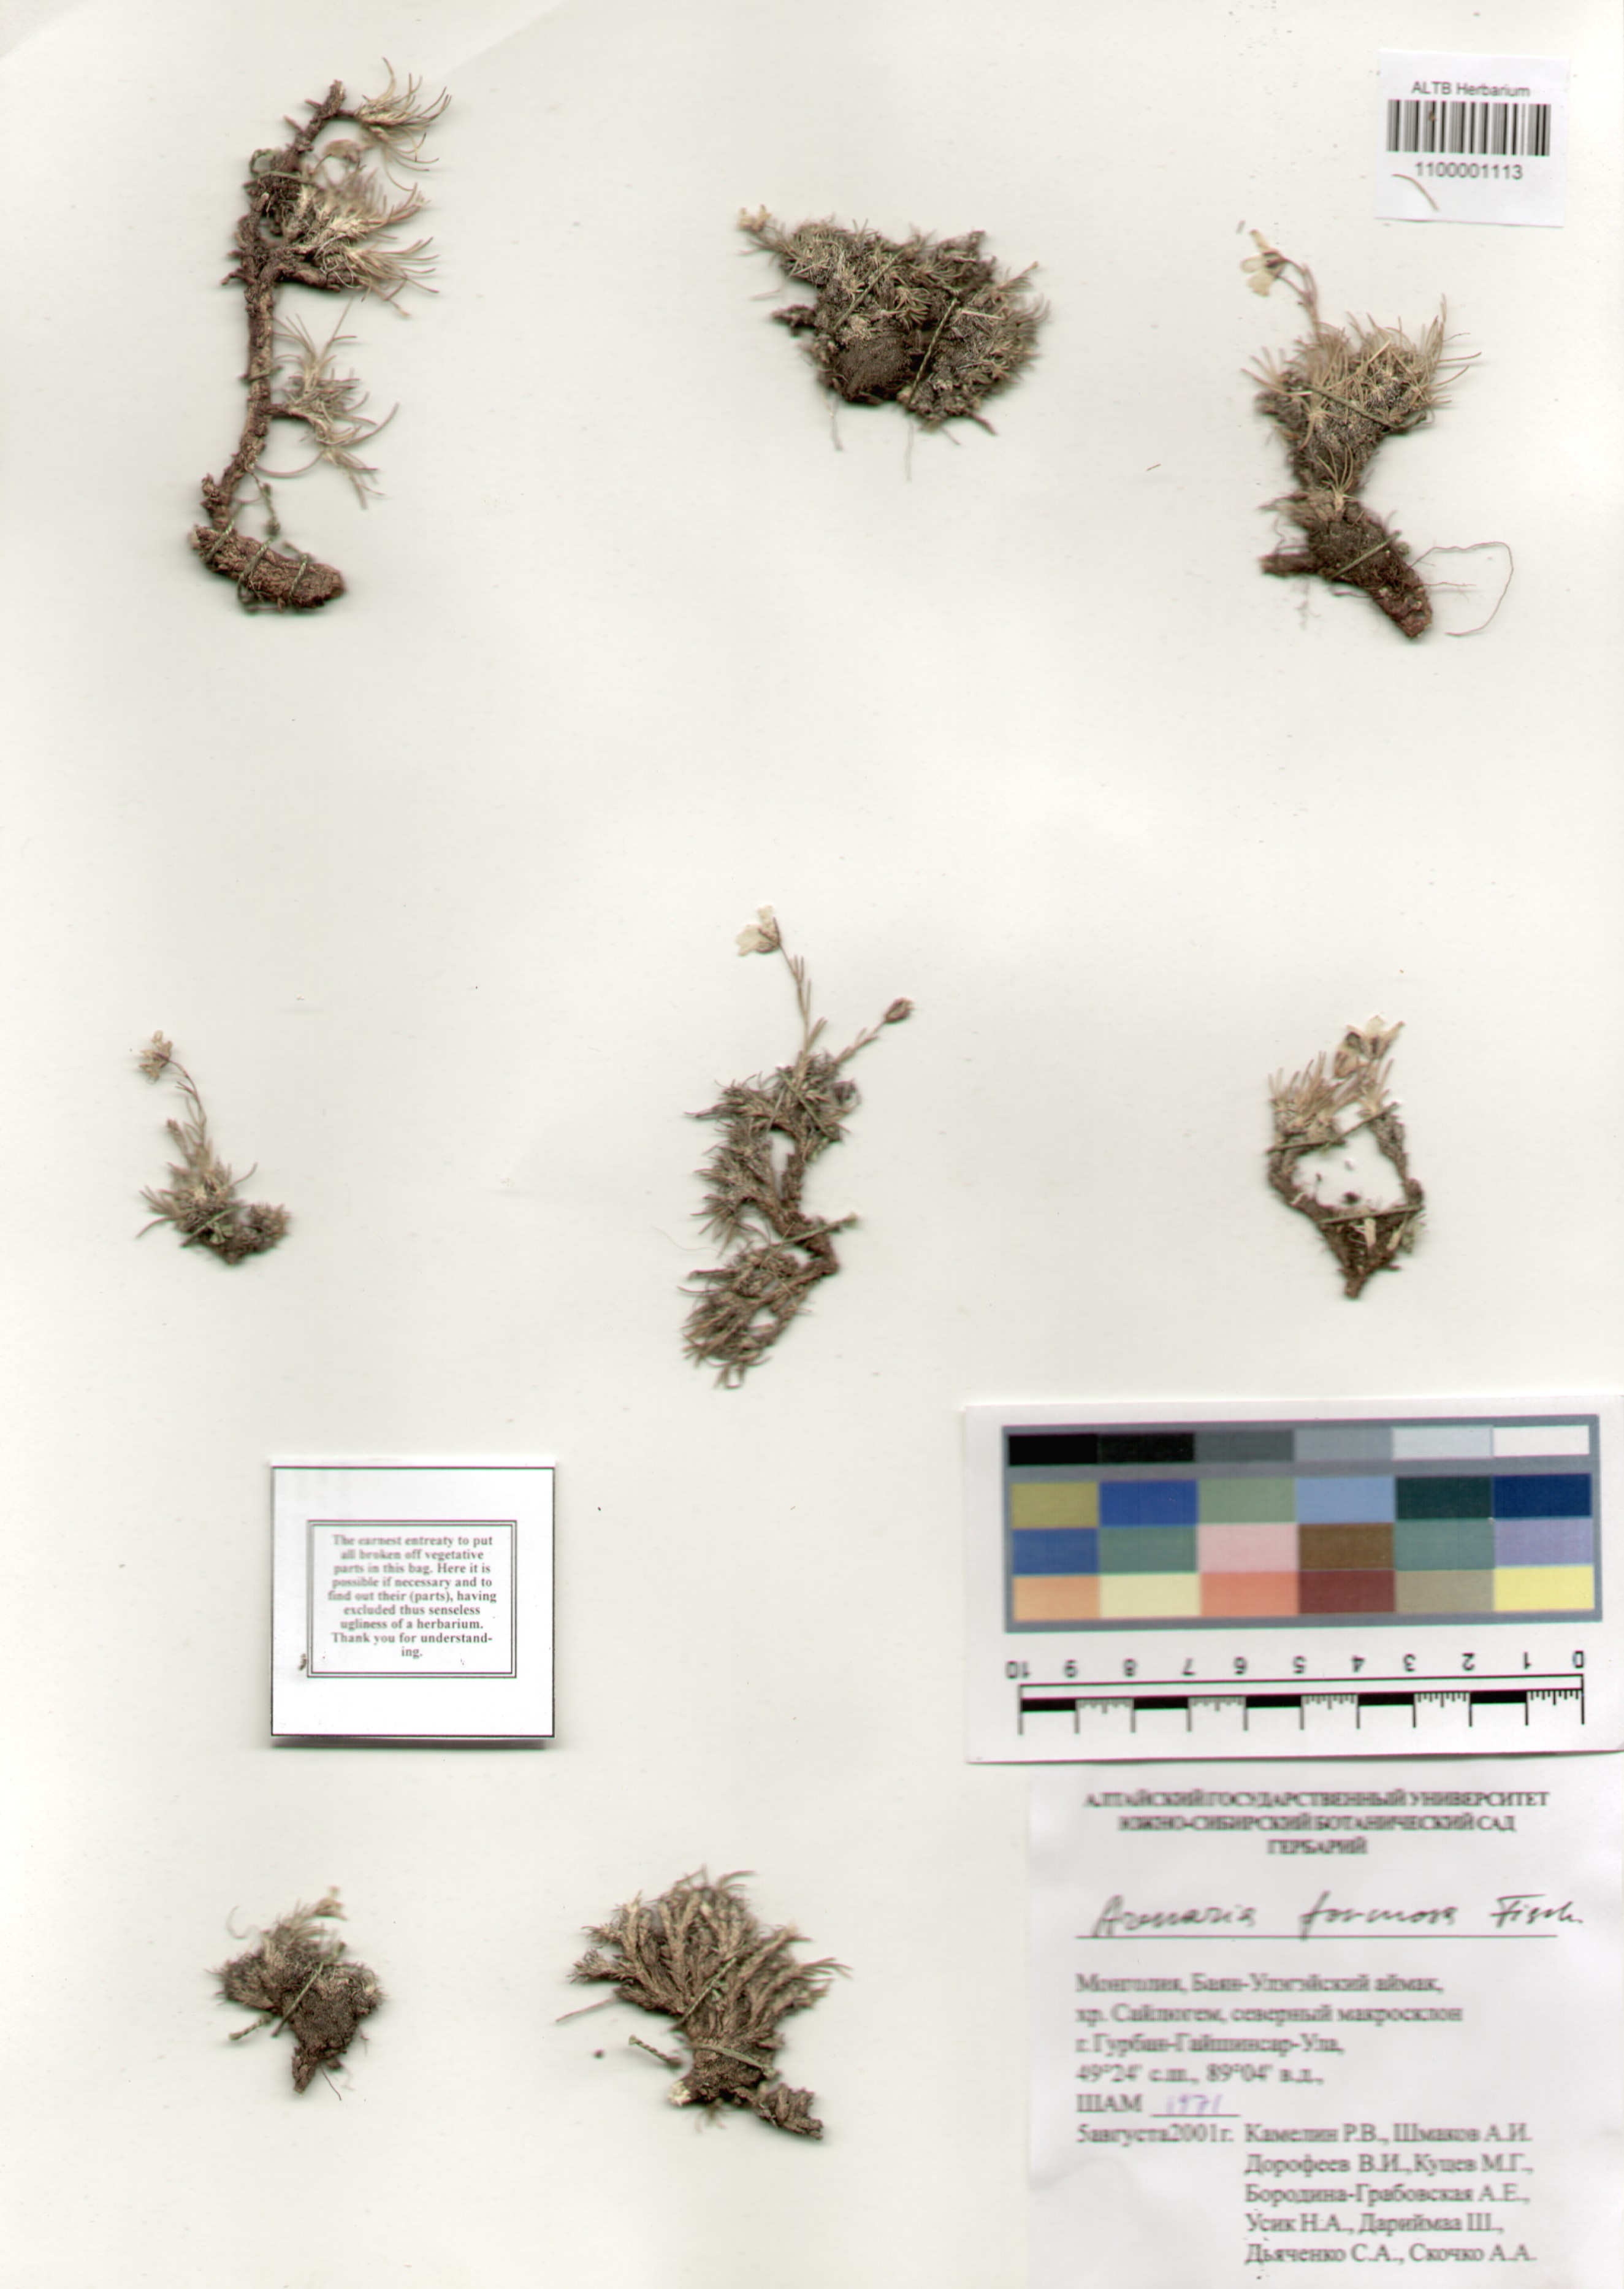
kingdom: Plantae
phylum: Tracheophyta
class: Magnoliopsida
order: Caryophyllales
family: Caryophyllaceae
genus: Eremogone
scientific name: Eremogone formosa
